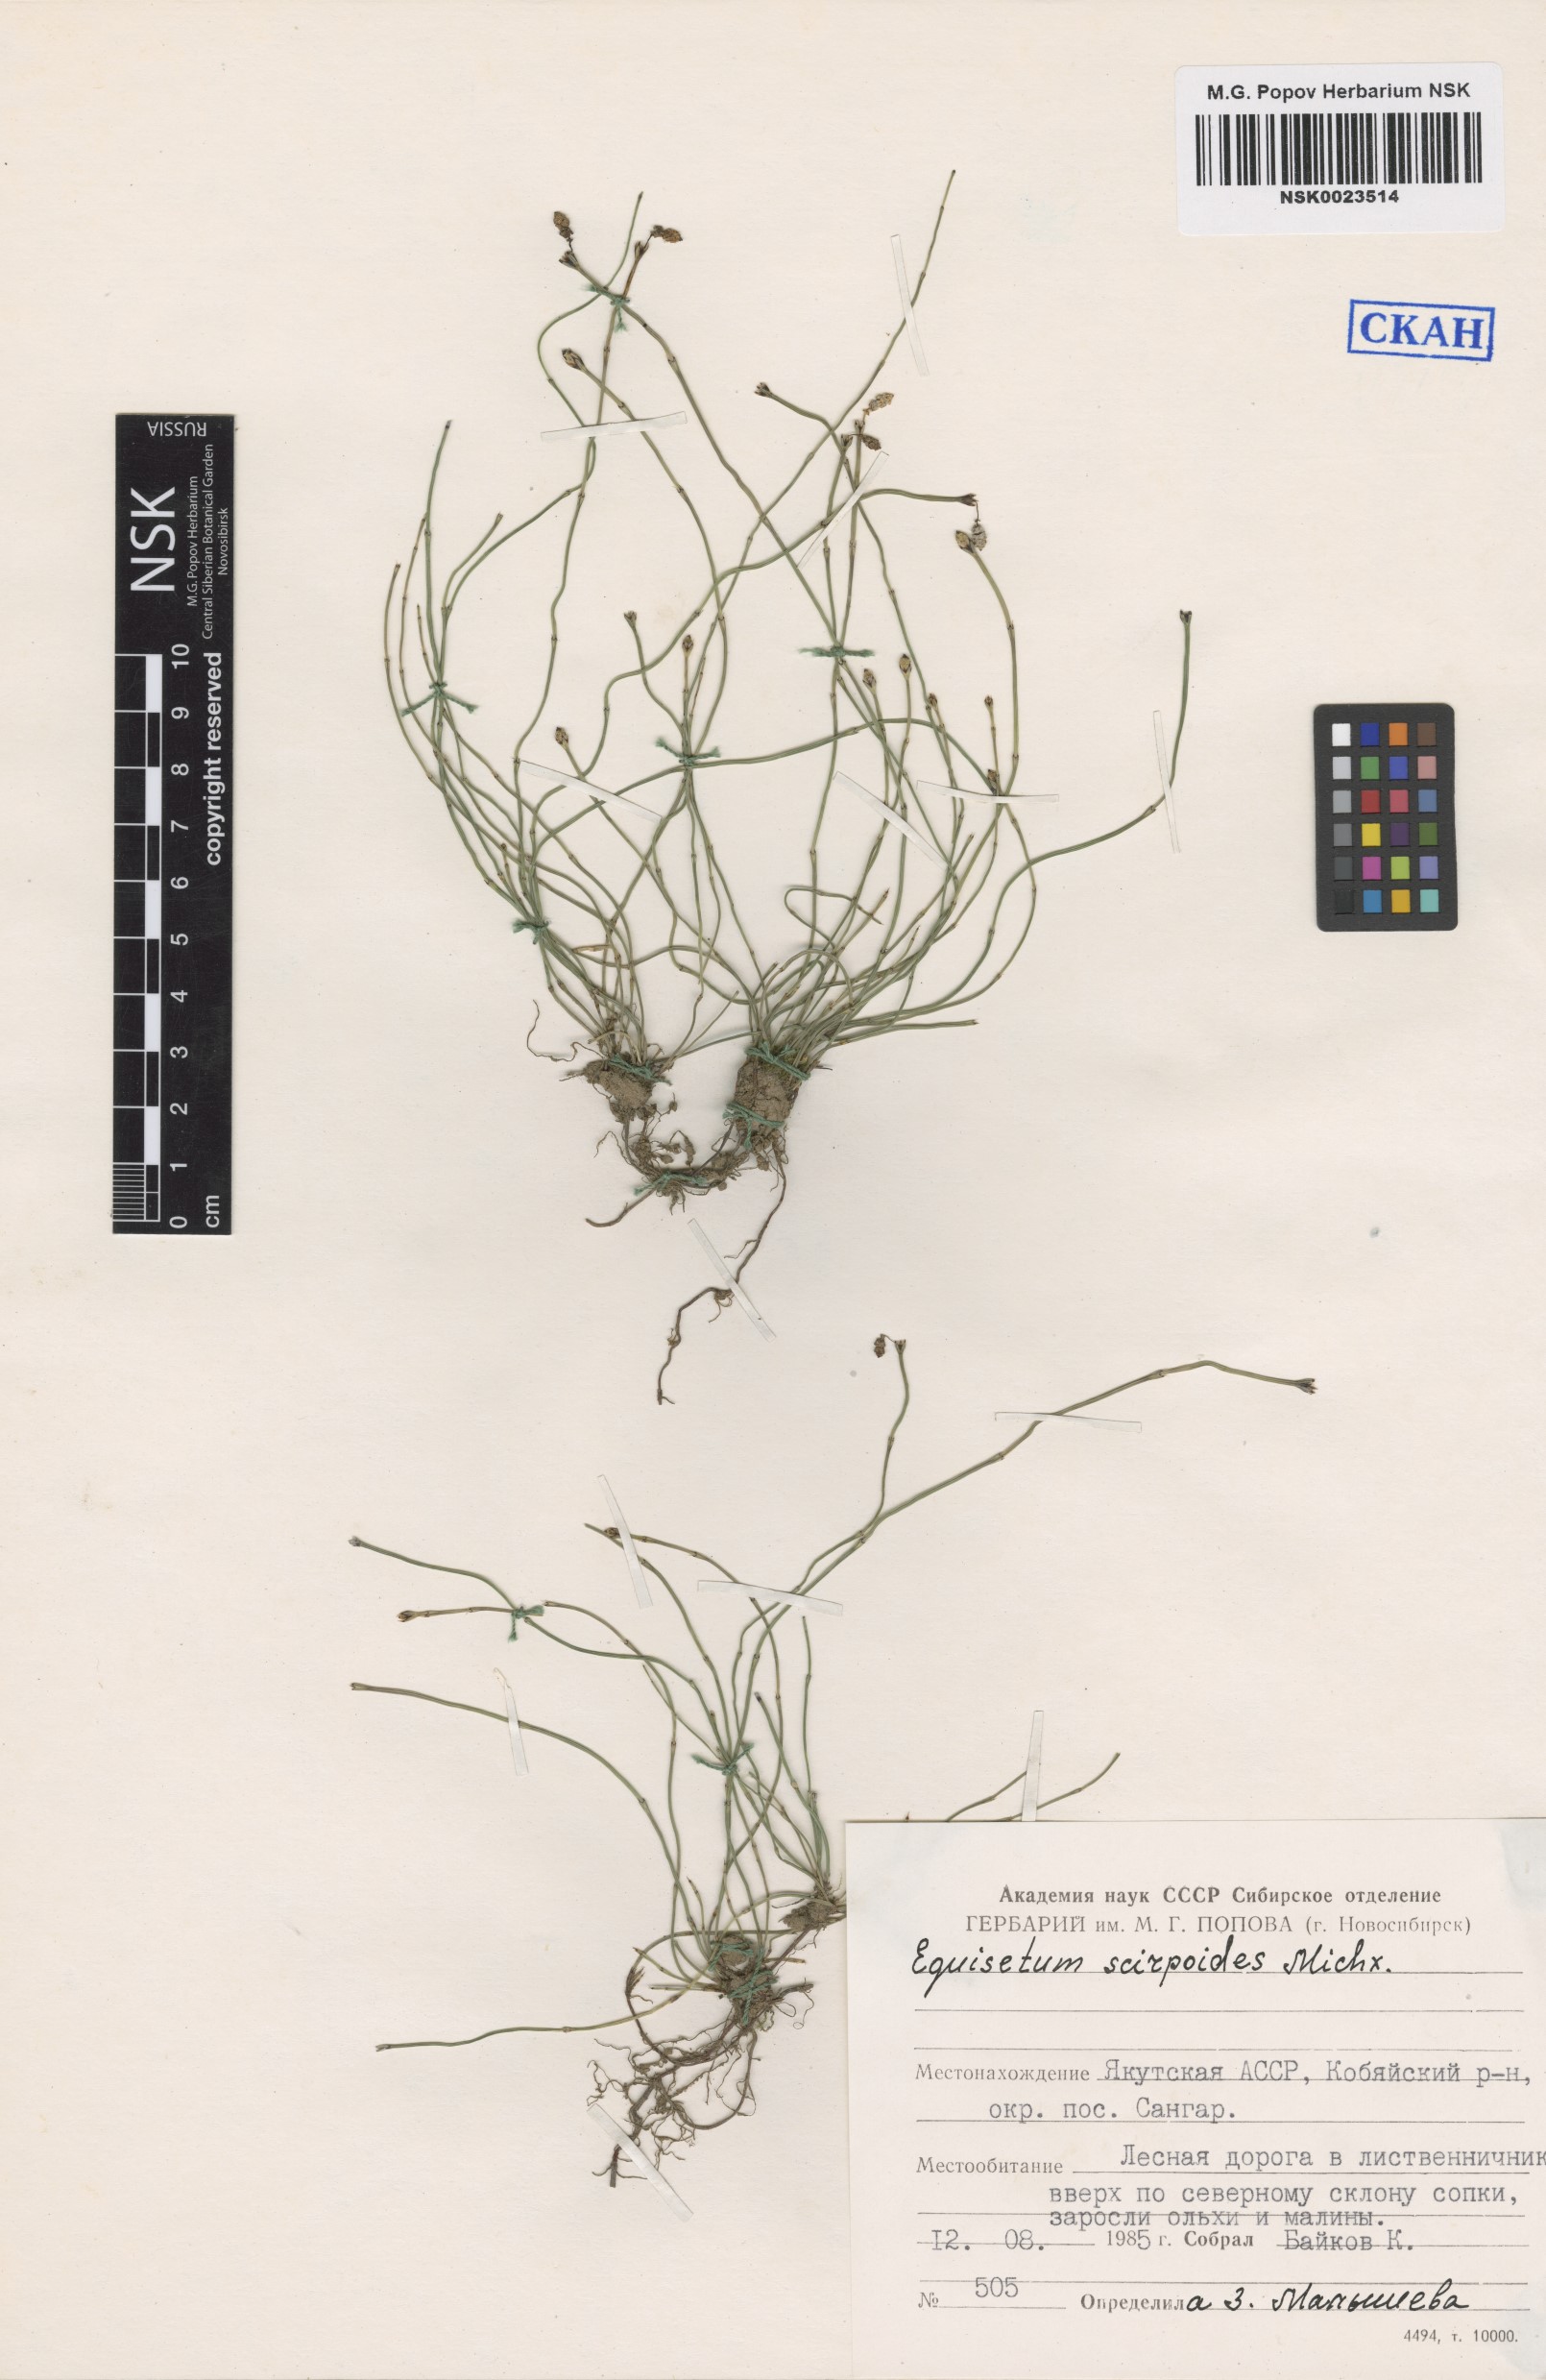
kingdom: Plantae
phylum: Tracheophyta
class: Polypodiopsida
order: Equisetales
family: Equisetaceae
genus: Equisetum
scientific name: Equisetum scirpoides
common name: Delicate horsetail
